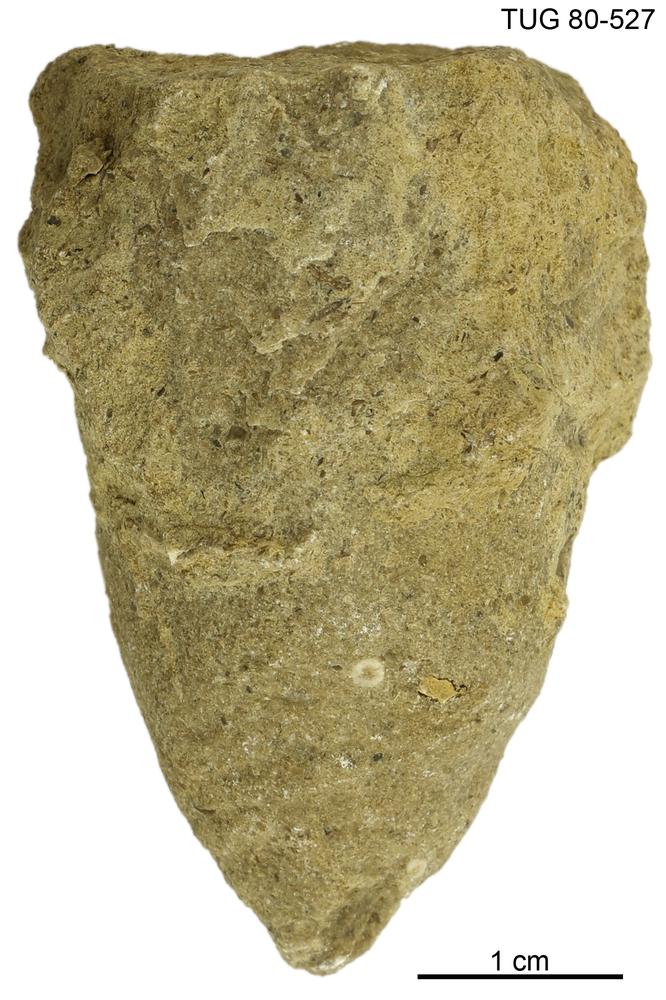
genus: Amphorichnus
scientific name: Amphorichnus
